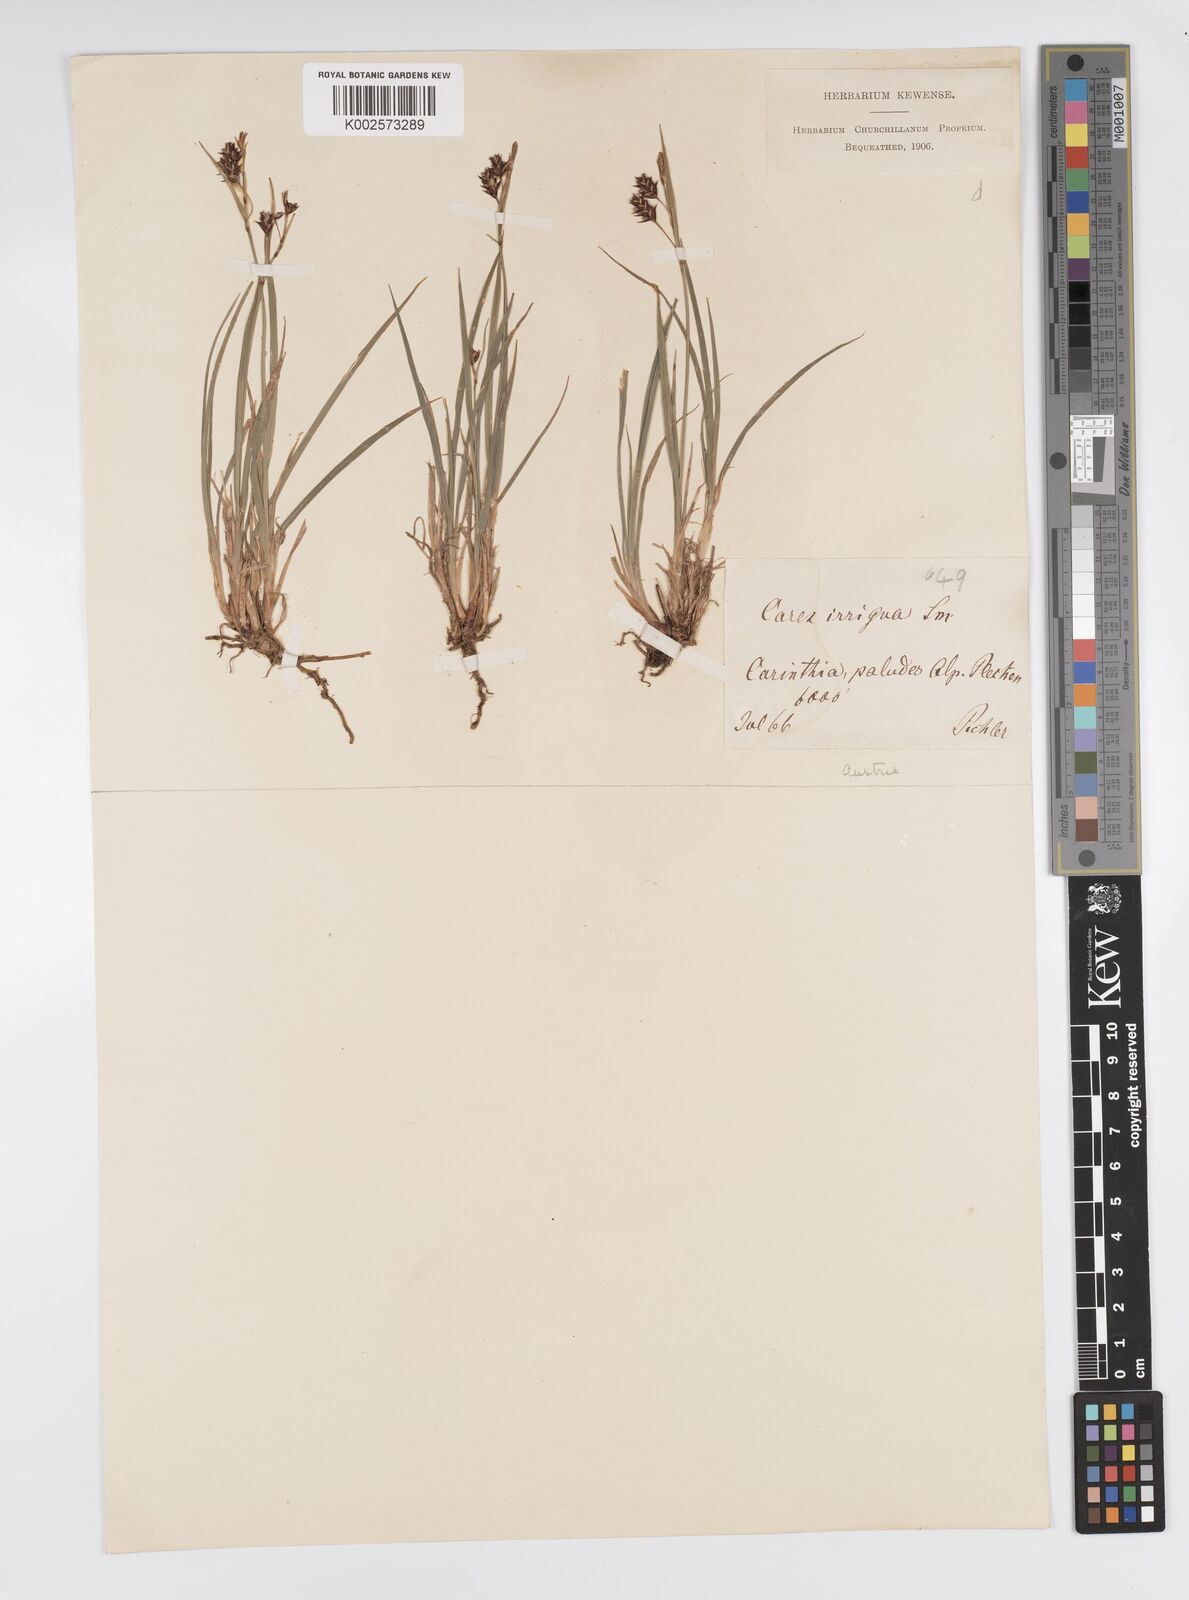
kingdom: Plantae
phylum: Tracheophyta
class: Liliopsida
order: Poales
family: Cyperaceae
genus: Carex
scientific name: Carex magellanica
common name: Bog sedge
